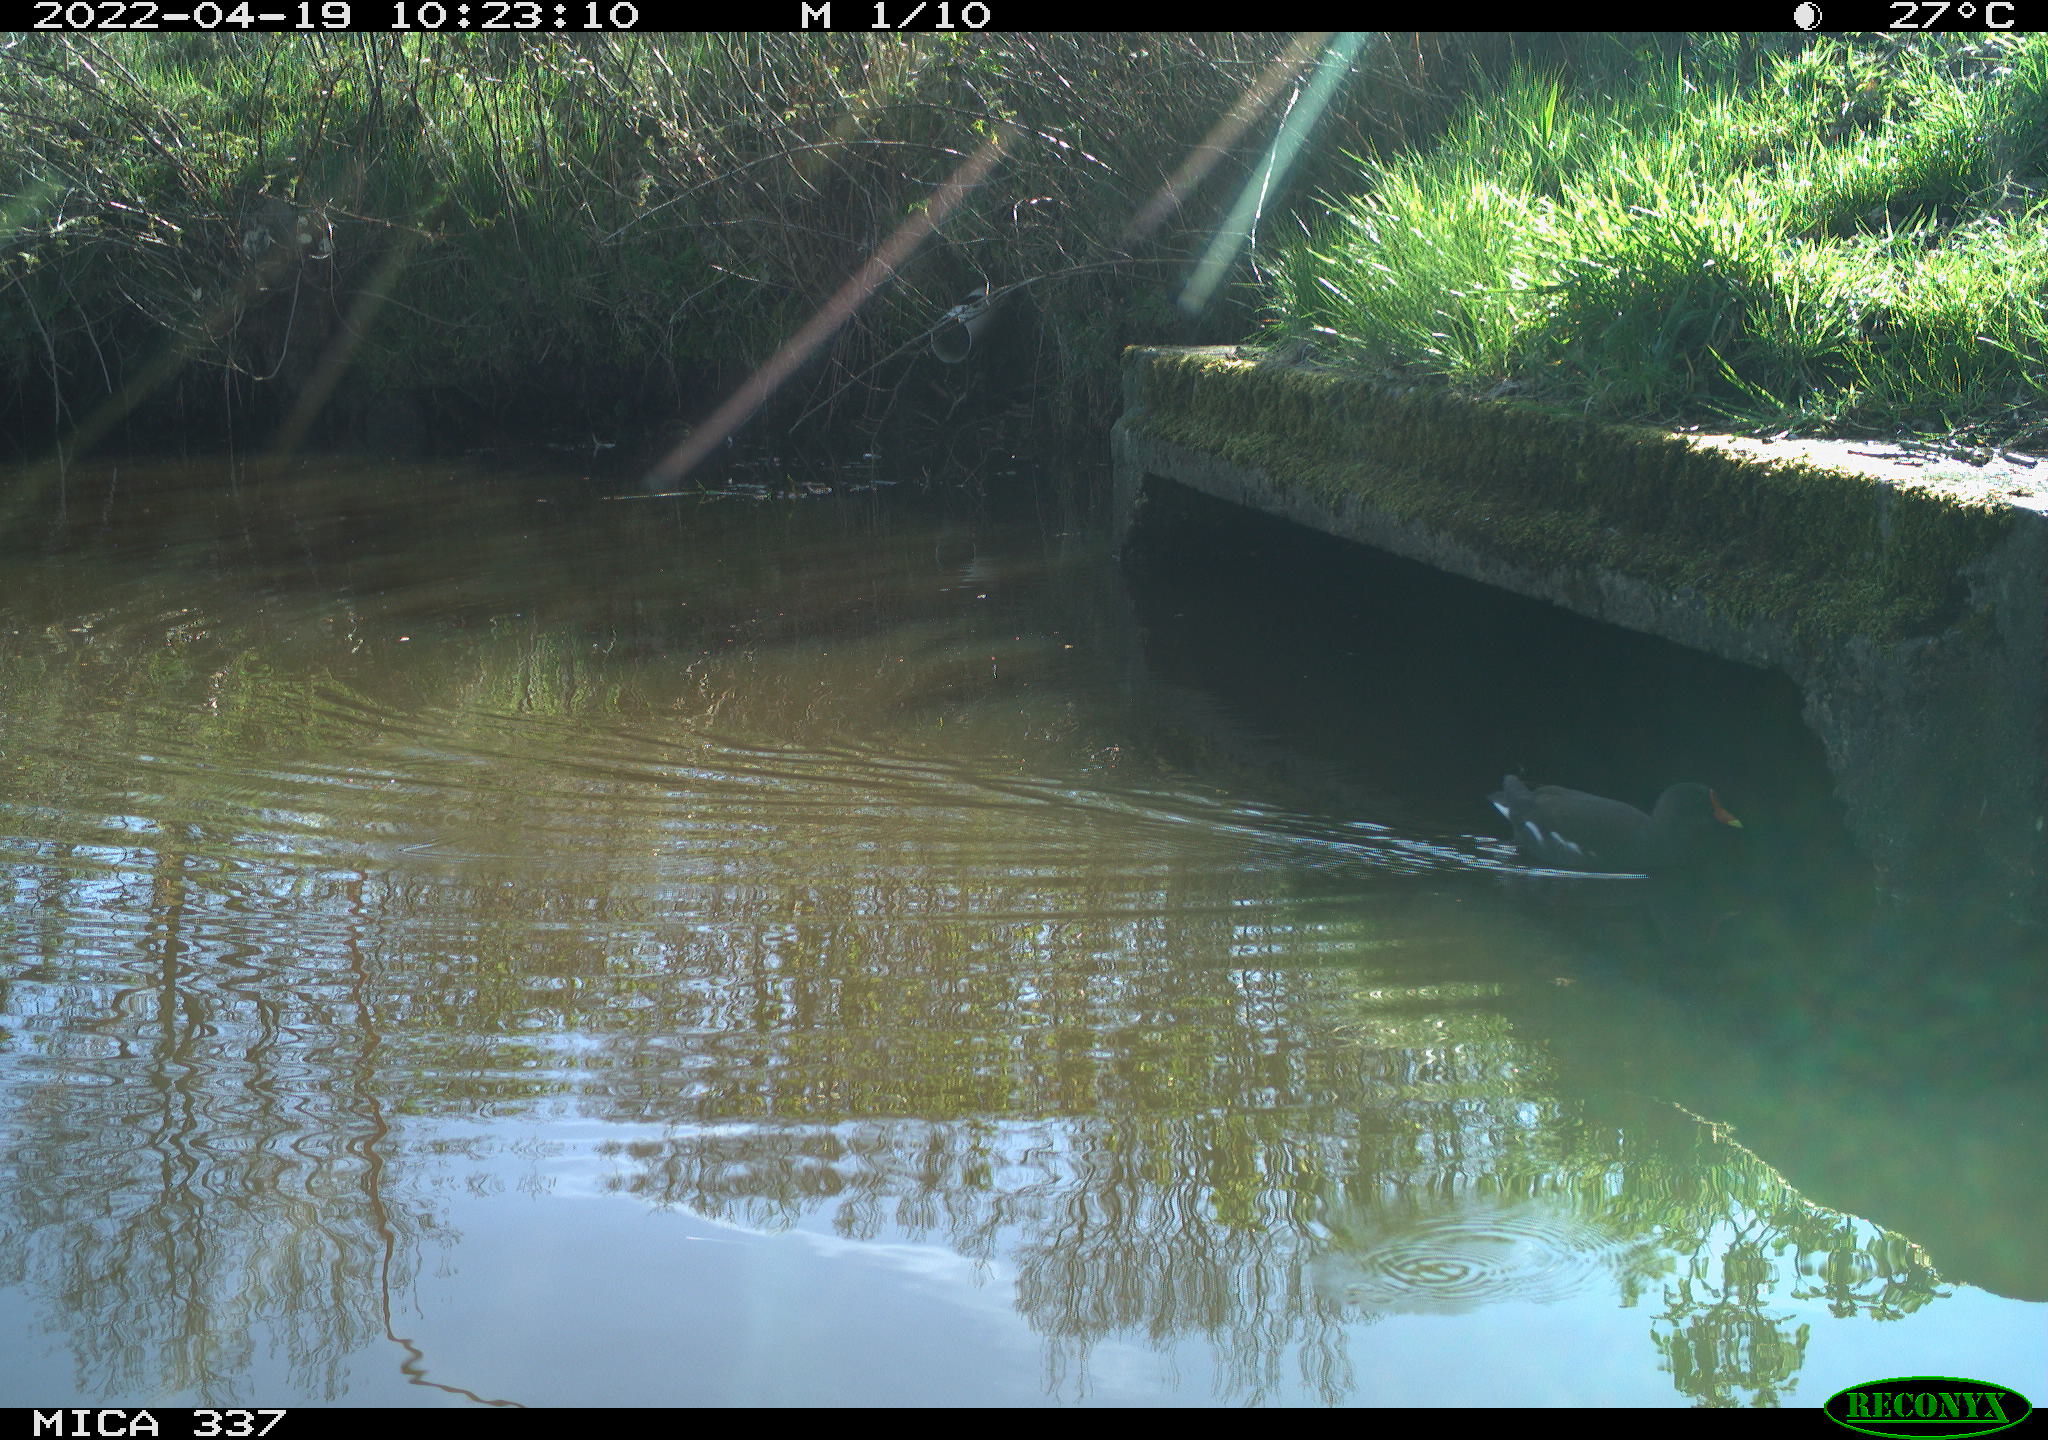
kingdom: Animalia
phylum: Chordata
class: Aves
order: Gruiformes
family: Rallidae
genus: Gallinula
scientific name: Gallinula chloropus
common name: Common moorhen
